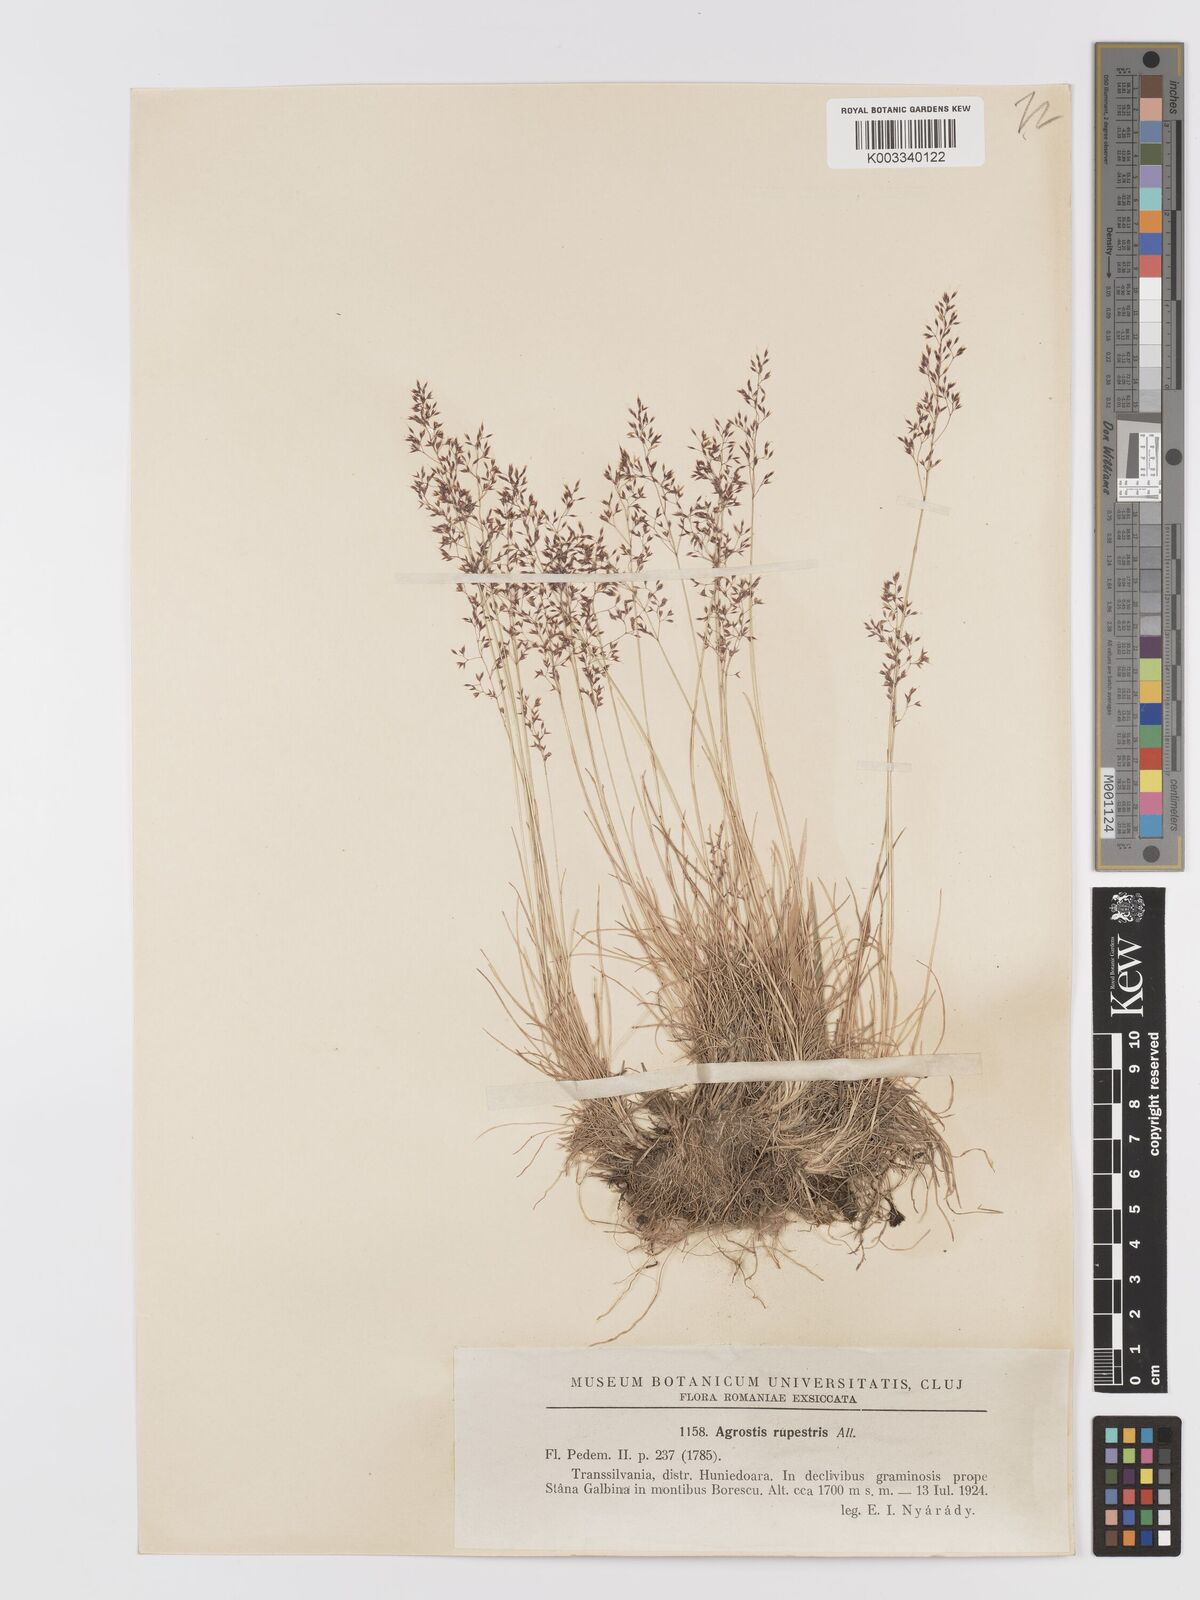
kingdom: Plantae
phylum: Tracheophyta
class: Liliopsida
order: Poales
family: Poaceae
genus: Agrostis
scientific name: Agrostis rupestris
